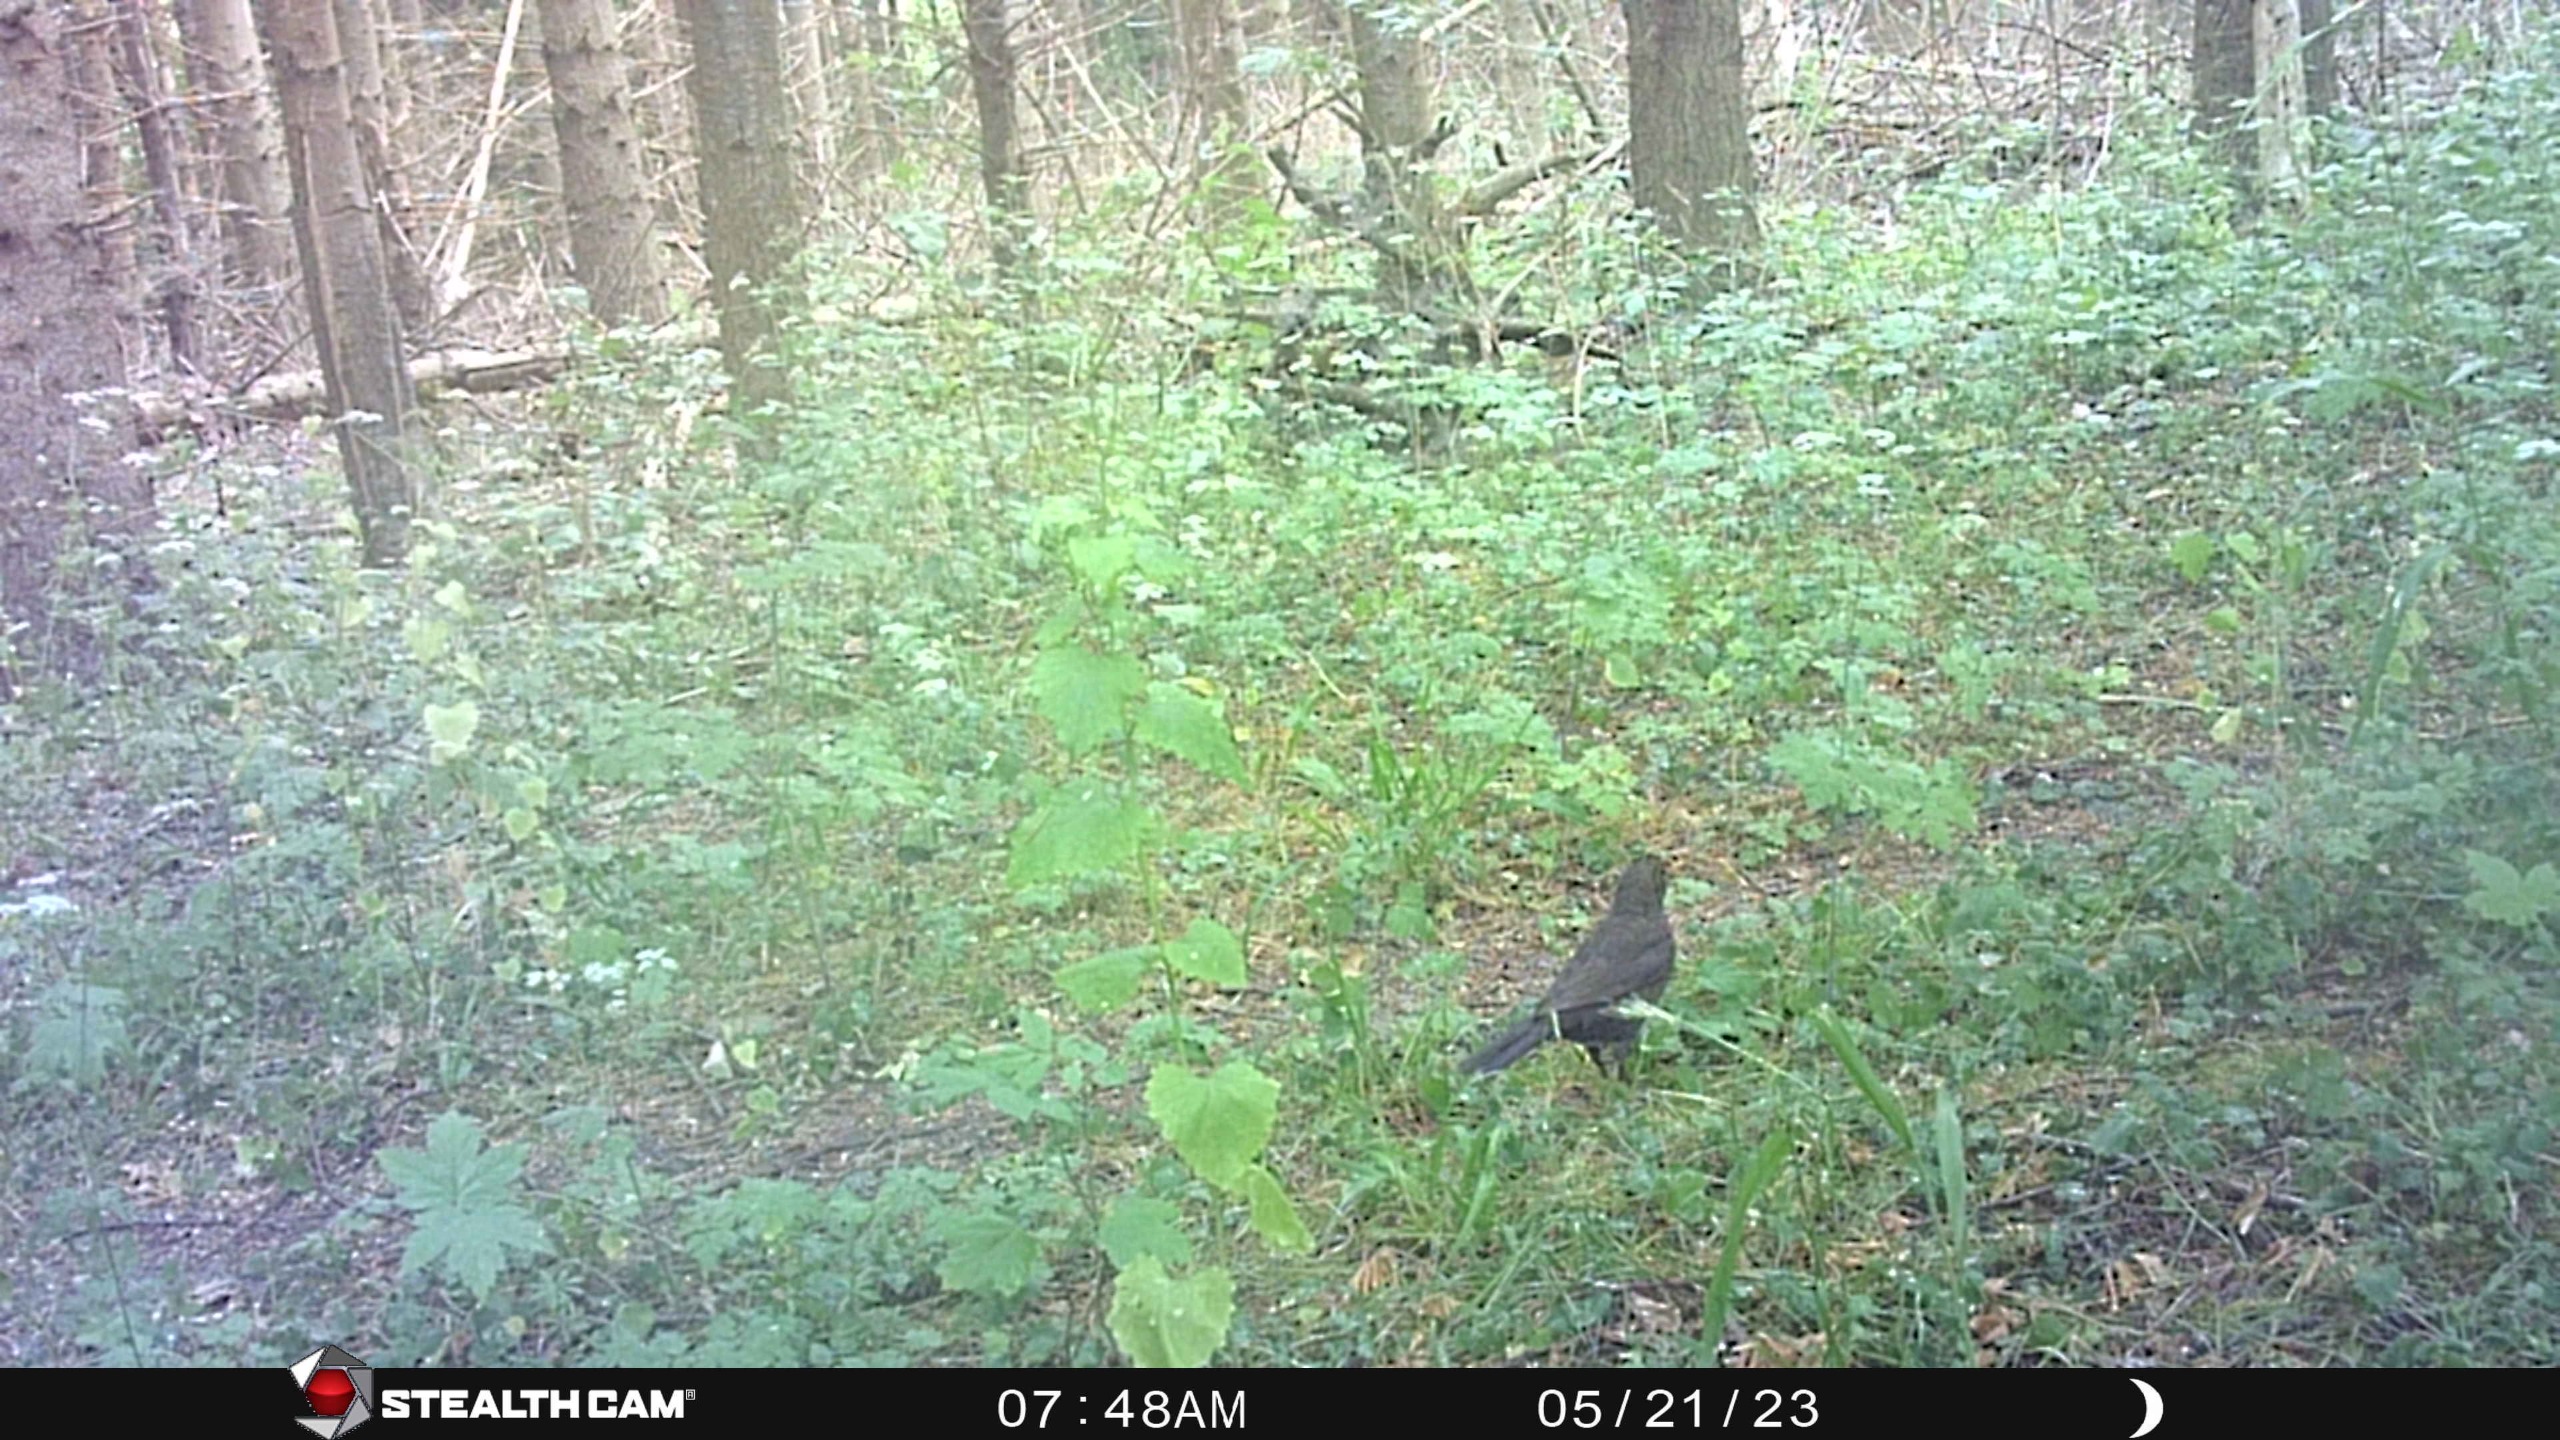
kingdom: Animalia
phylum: Chordata
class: Aves
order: Passeriformes
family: Turdidae
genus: Turdus
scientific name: Turdus merula
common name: Solsort
